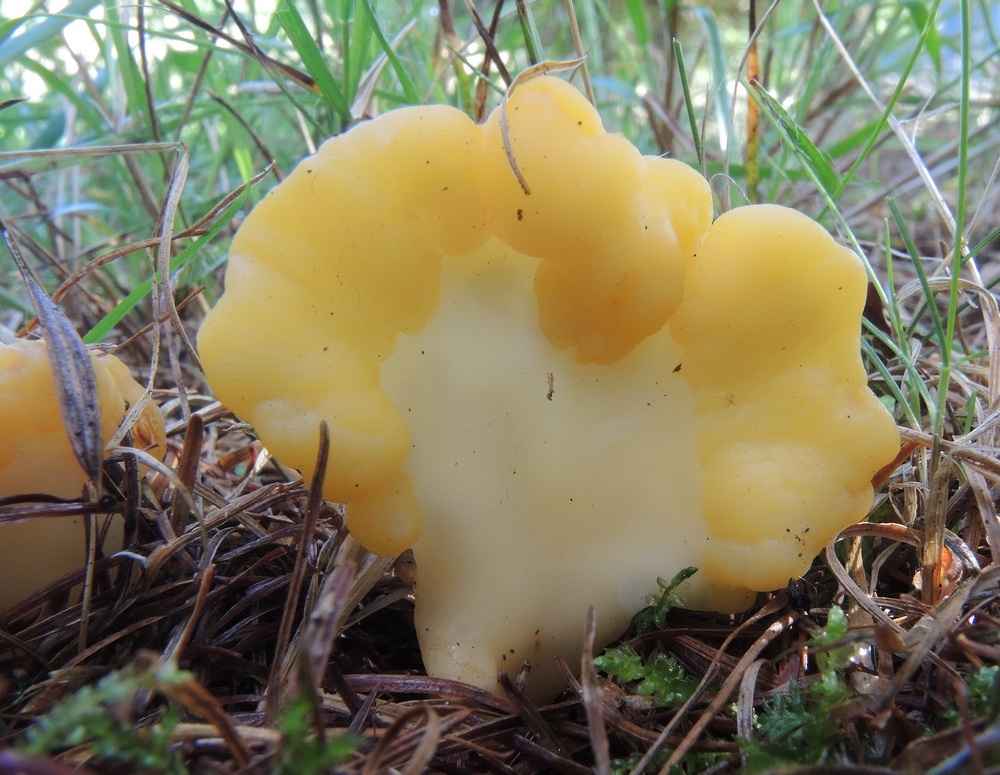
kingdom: Fungi
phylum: Ascomycota
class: Leotiomycetes
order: Rhytismatales
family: Cudoniaceae
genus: Spathularia
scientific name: Spathularia flavida
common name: gul spatelsvamp
